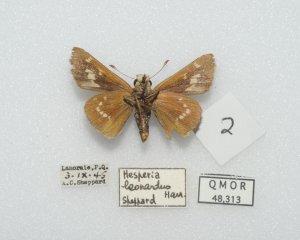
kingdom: Animalia
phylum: Arthropoda
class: Insecta
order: Lepidoptera
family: Hesperiidae
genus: Hesperia
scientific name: Hesperia leonardus
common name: Leonard's Skipper
